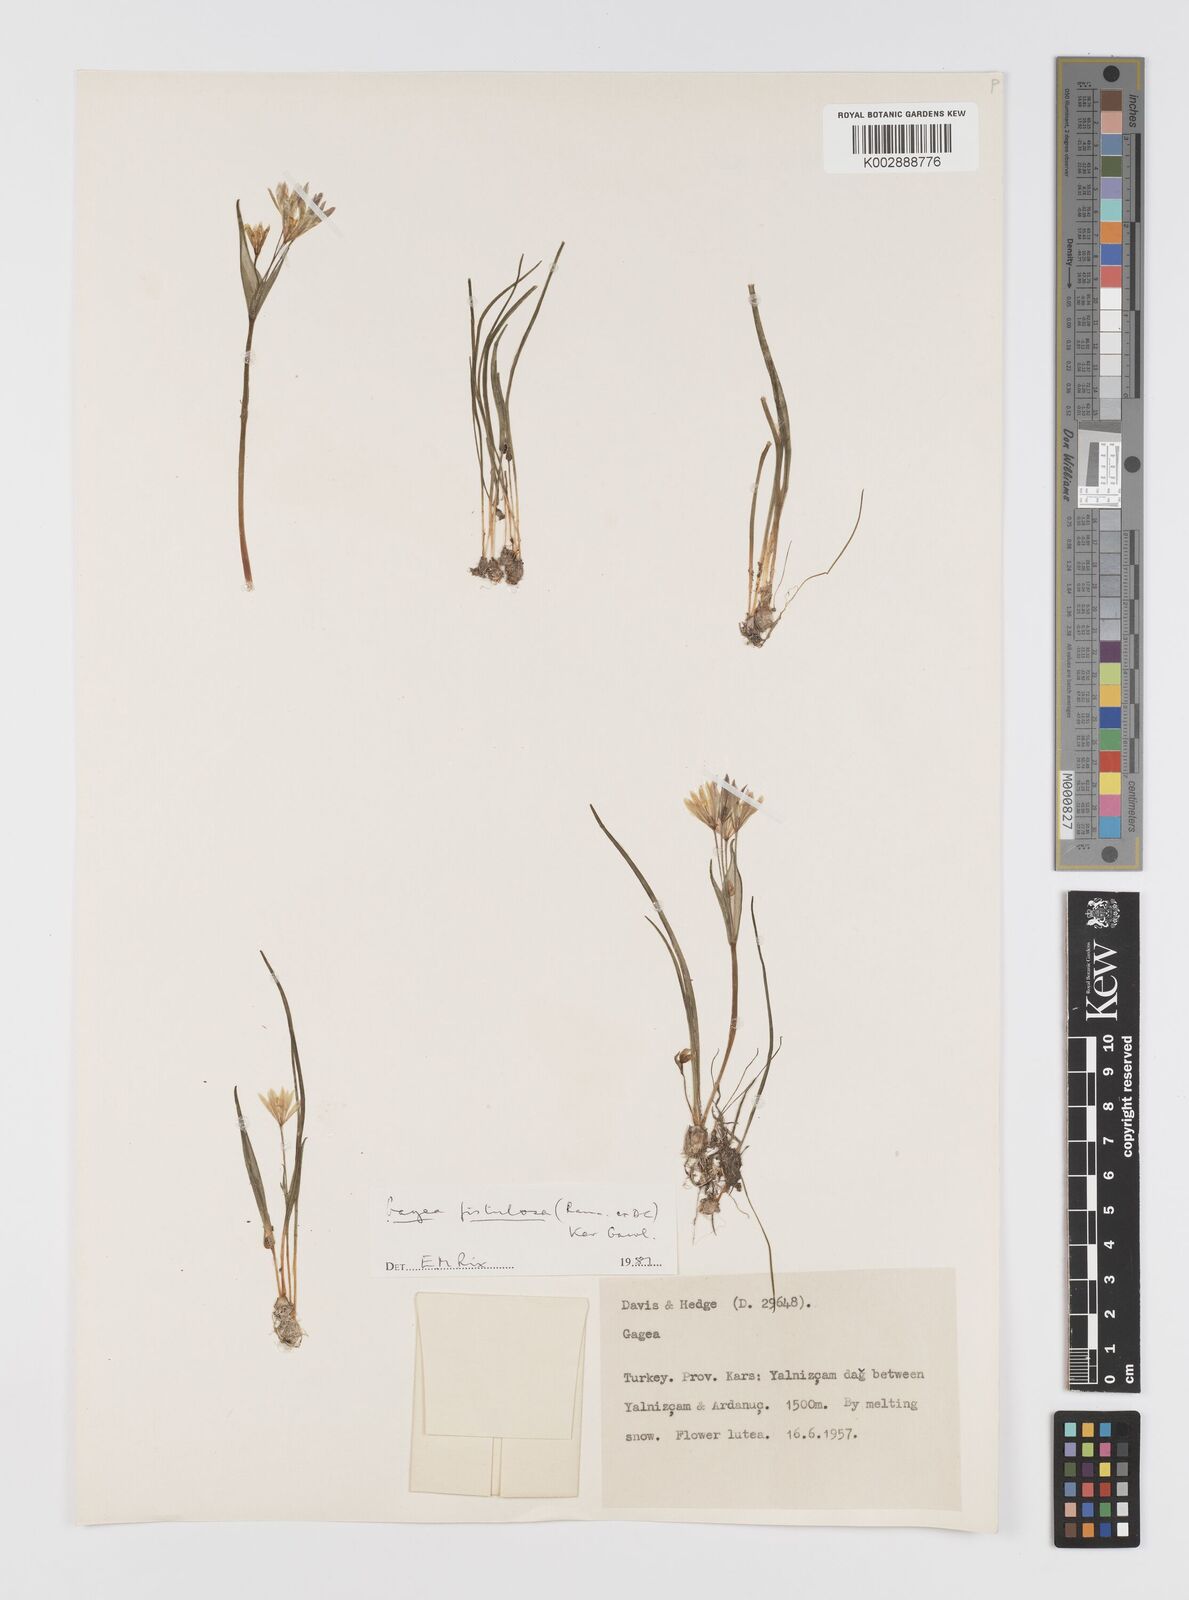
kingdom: Plantae
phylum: Tracheophyta
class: Liliopsida
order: Liliales
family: Liliaceae
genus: Gagea
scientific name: Gagea bohemica
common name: Early star-of-bethlehem
